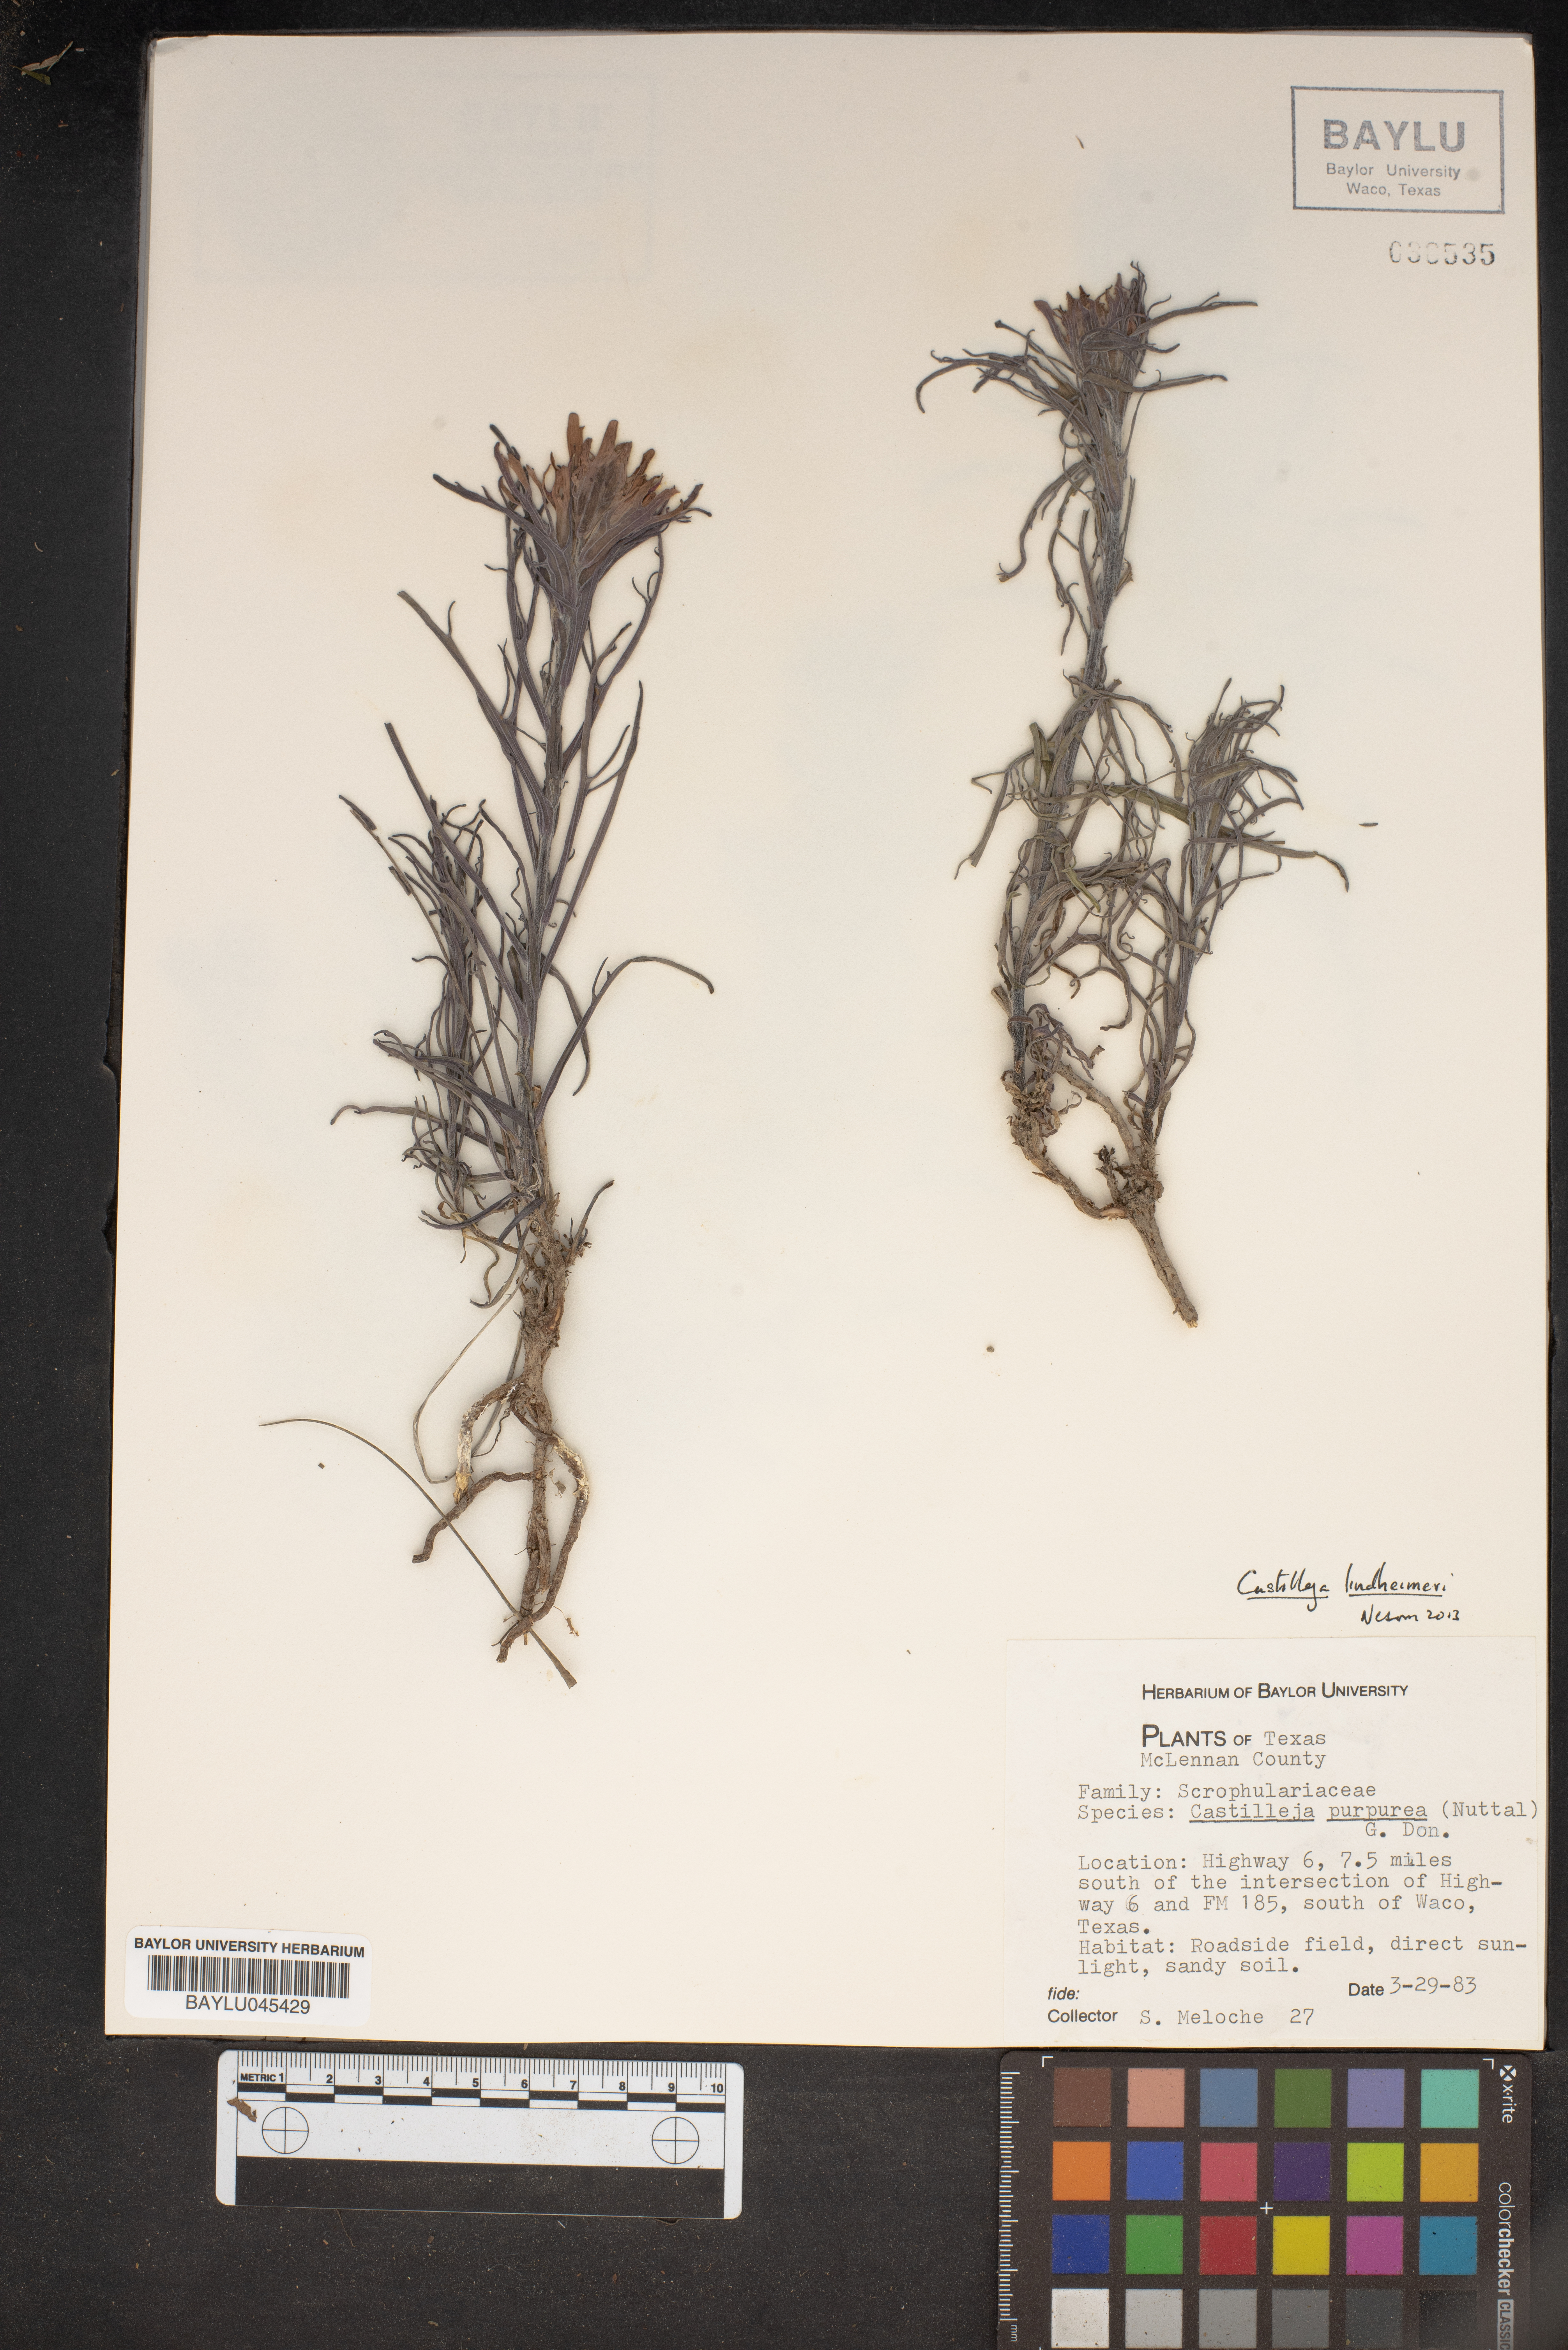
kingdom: Plantae
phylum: Tracheophyta
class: Magnoliopsida
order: Lamiales
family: Orobanchaceae
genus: Castilleja
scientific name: Castilleja lindheimeri
